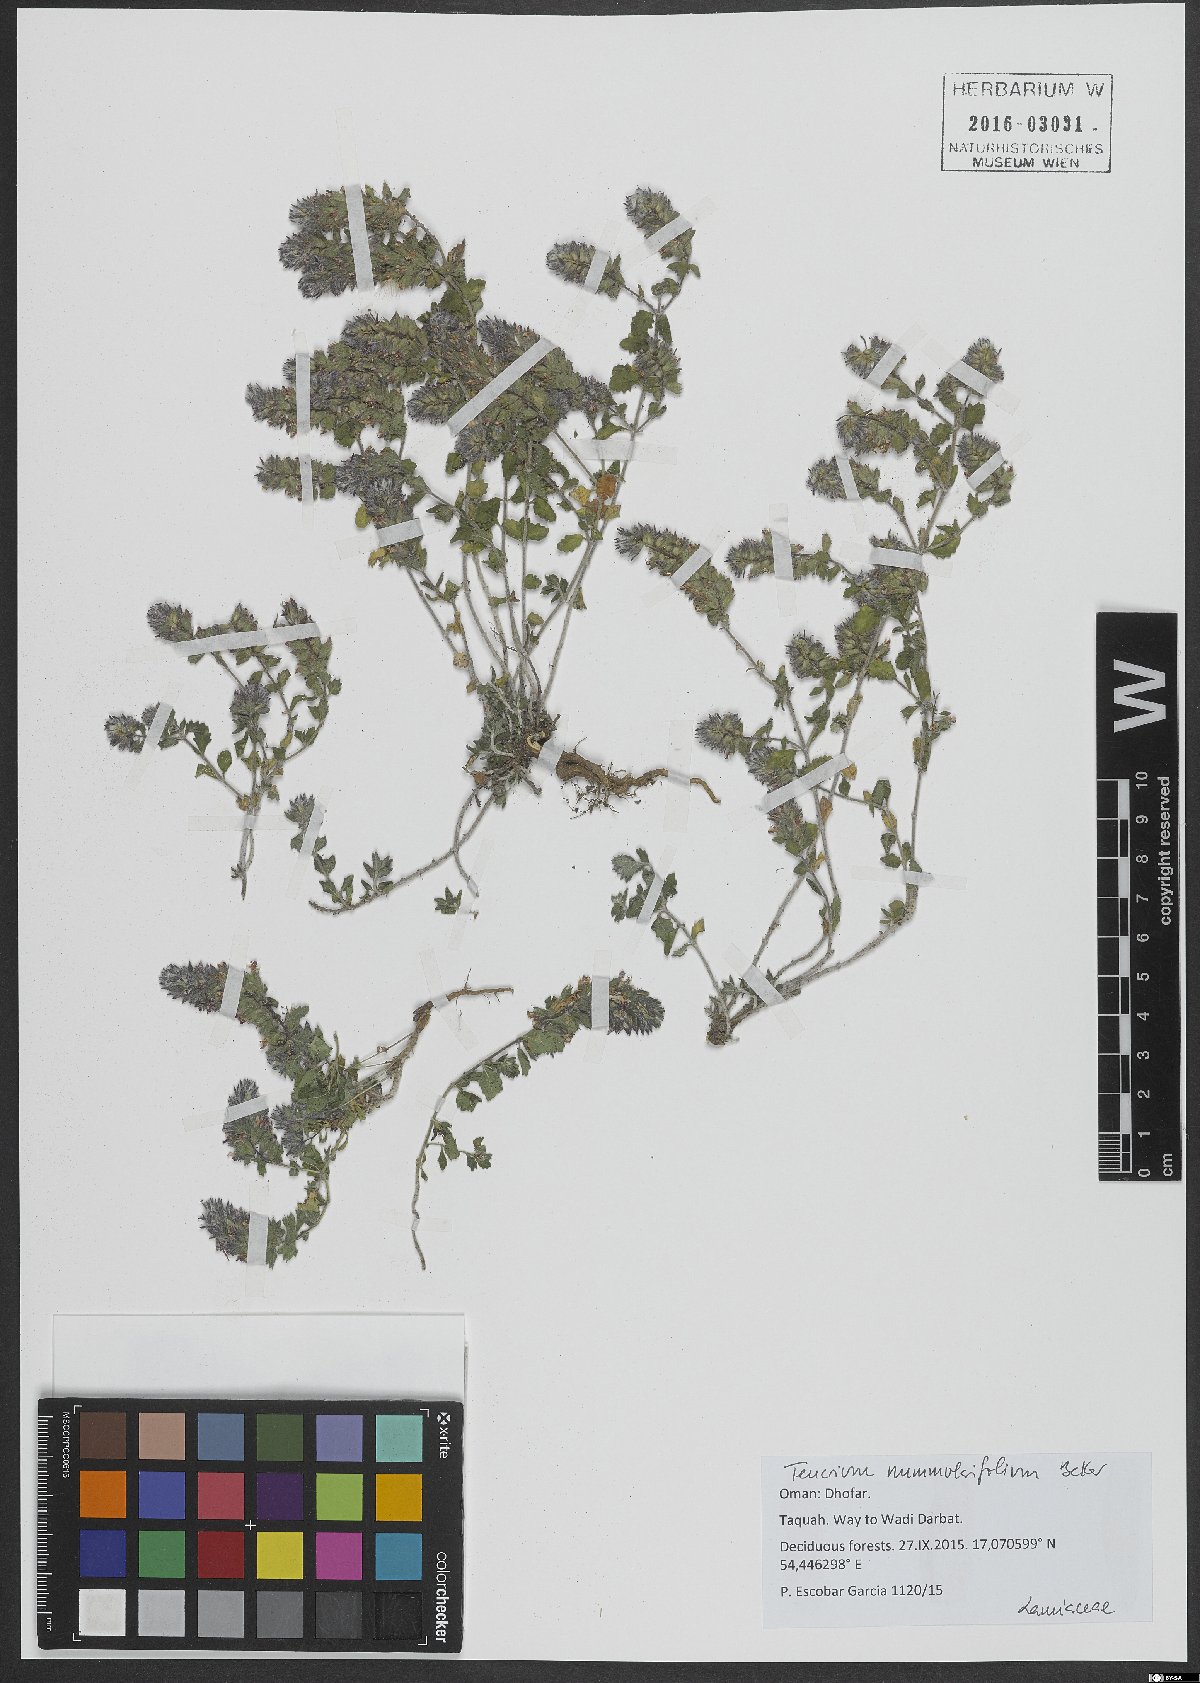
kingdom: Plantae
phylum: Tracheophyta
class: Magnoliopsida
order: Lamiales
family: Lamiaceae
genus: Teucrium
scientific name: Teucrium nummulariifolium
